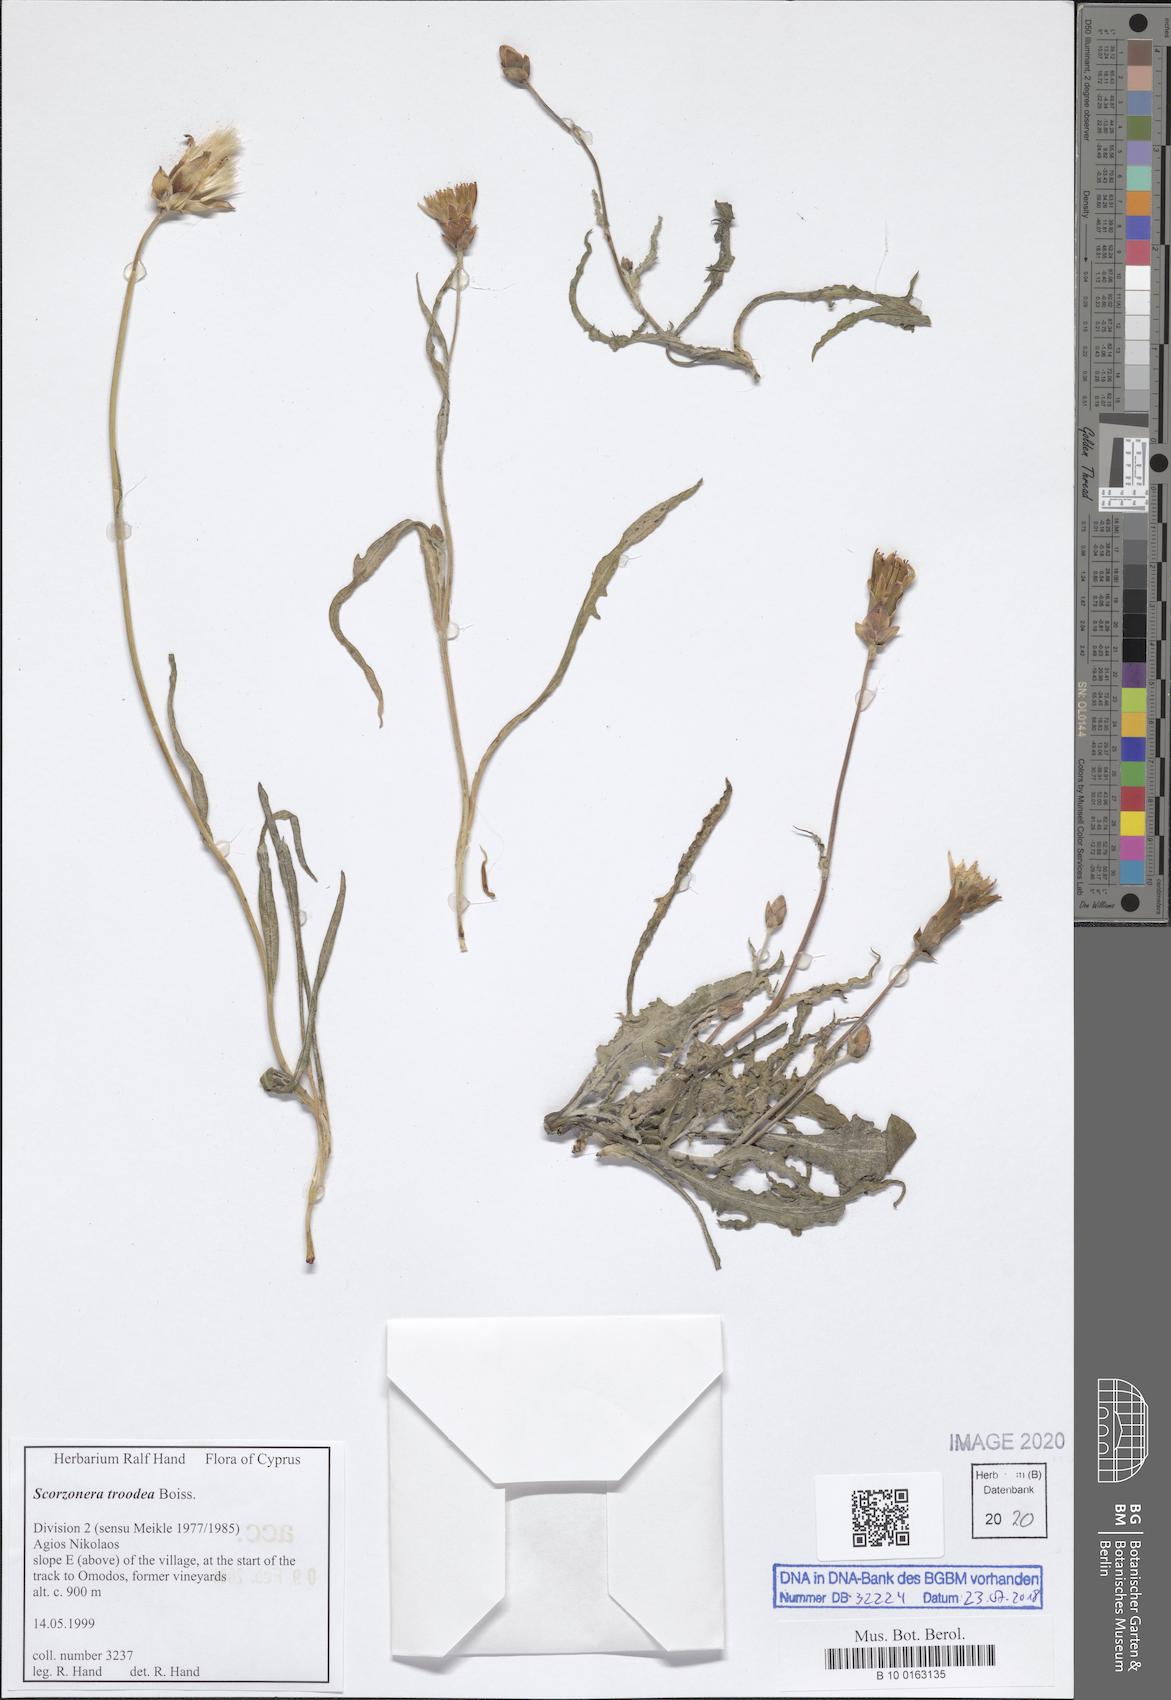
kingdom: Plantae
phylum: Tracheophyta
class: Magnoliopsida
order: Asterales
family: Asteraceae
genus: Pseudopodospermum
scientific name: Pseudopodospermum troodeum
